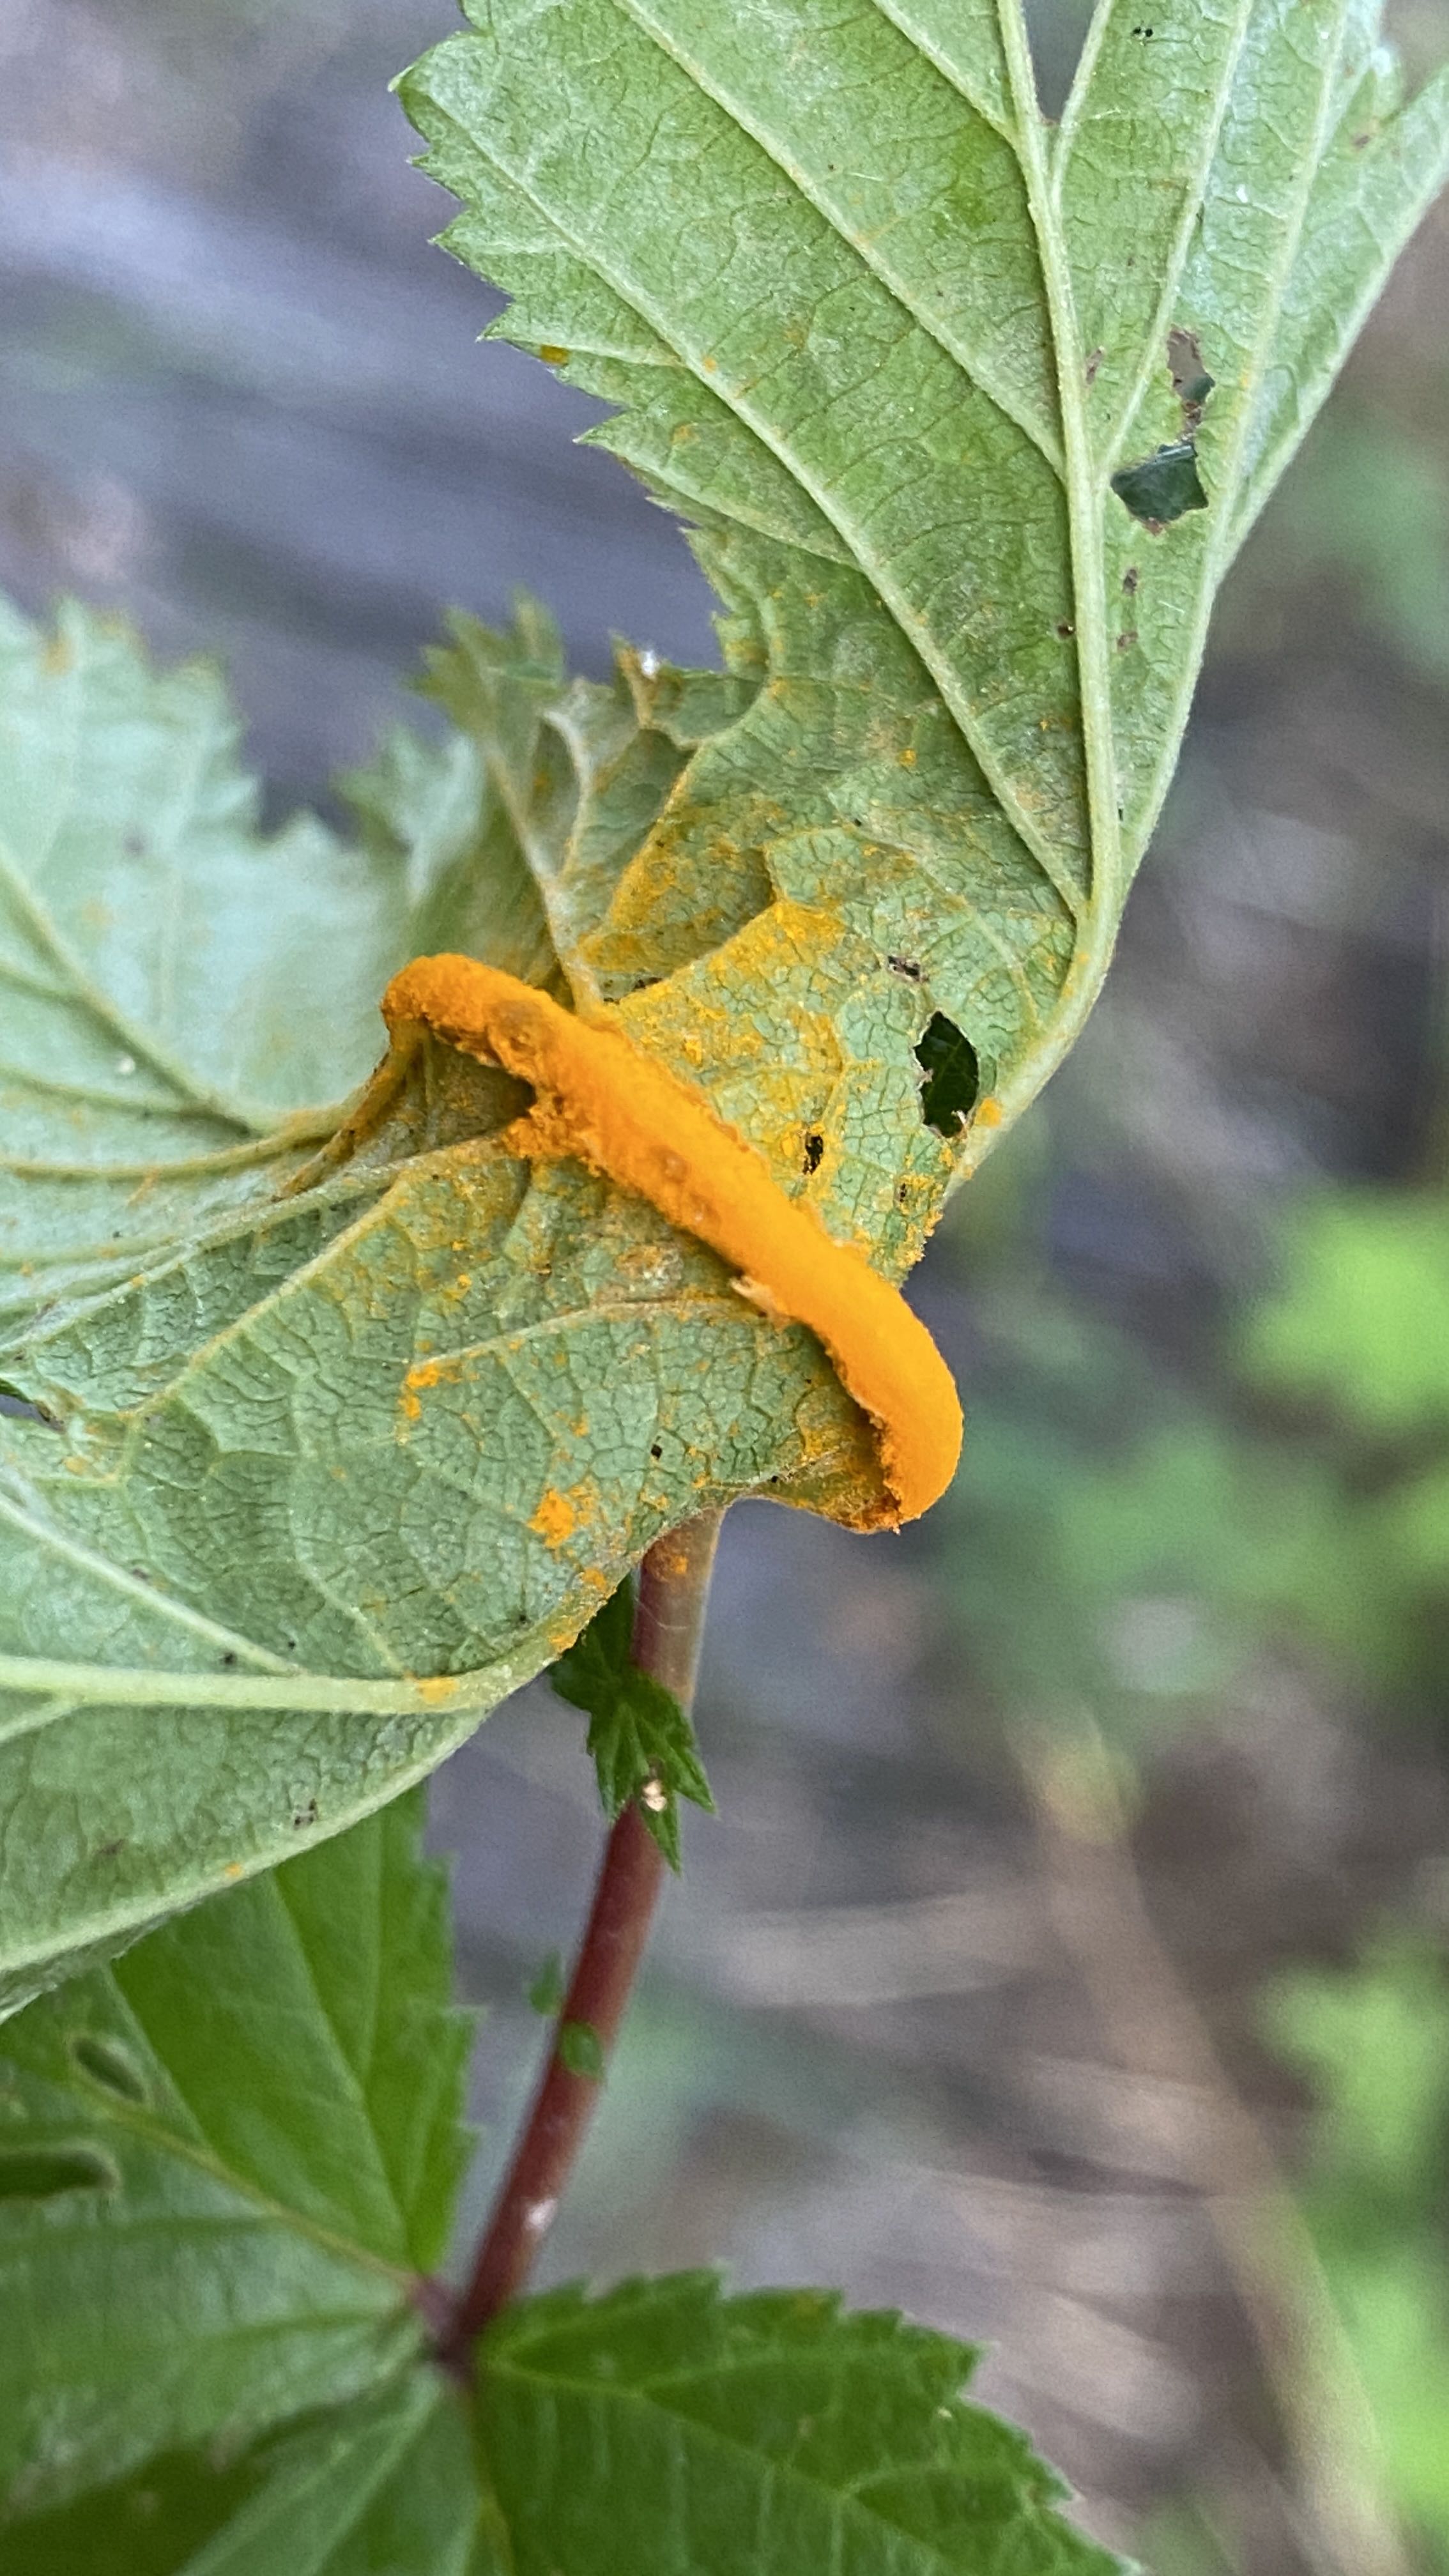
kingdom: Fungi
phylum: Basidiomycota
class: Pucciniomycetes
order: Pucciniales
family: Raveneliaceae
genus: Triphragmium
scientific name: Triphragmium ulmariae
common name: almindelig mjødurtrust
